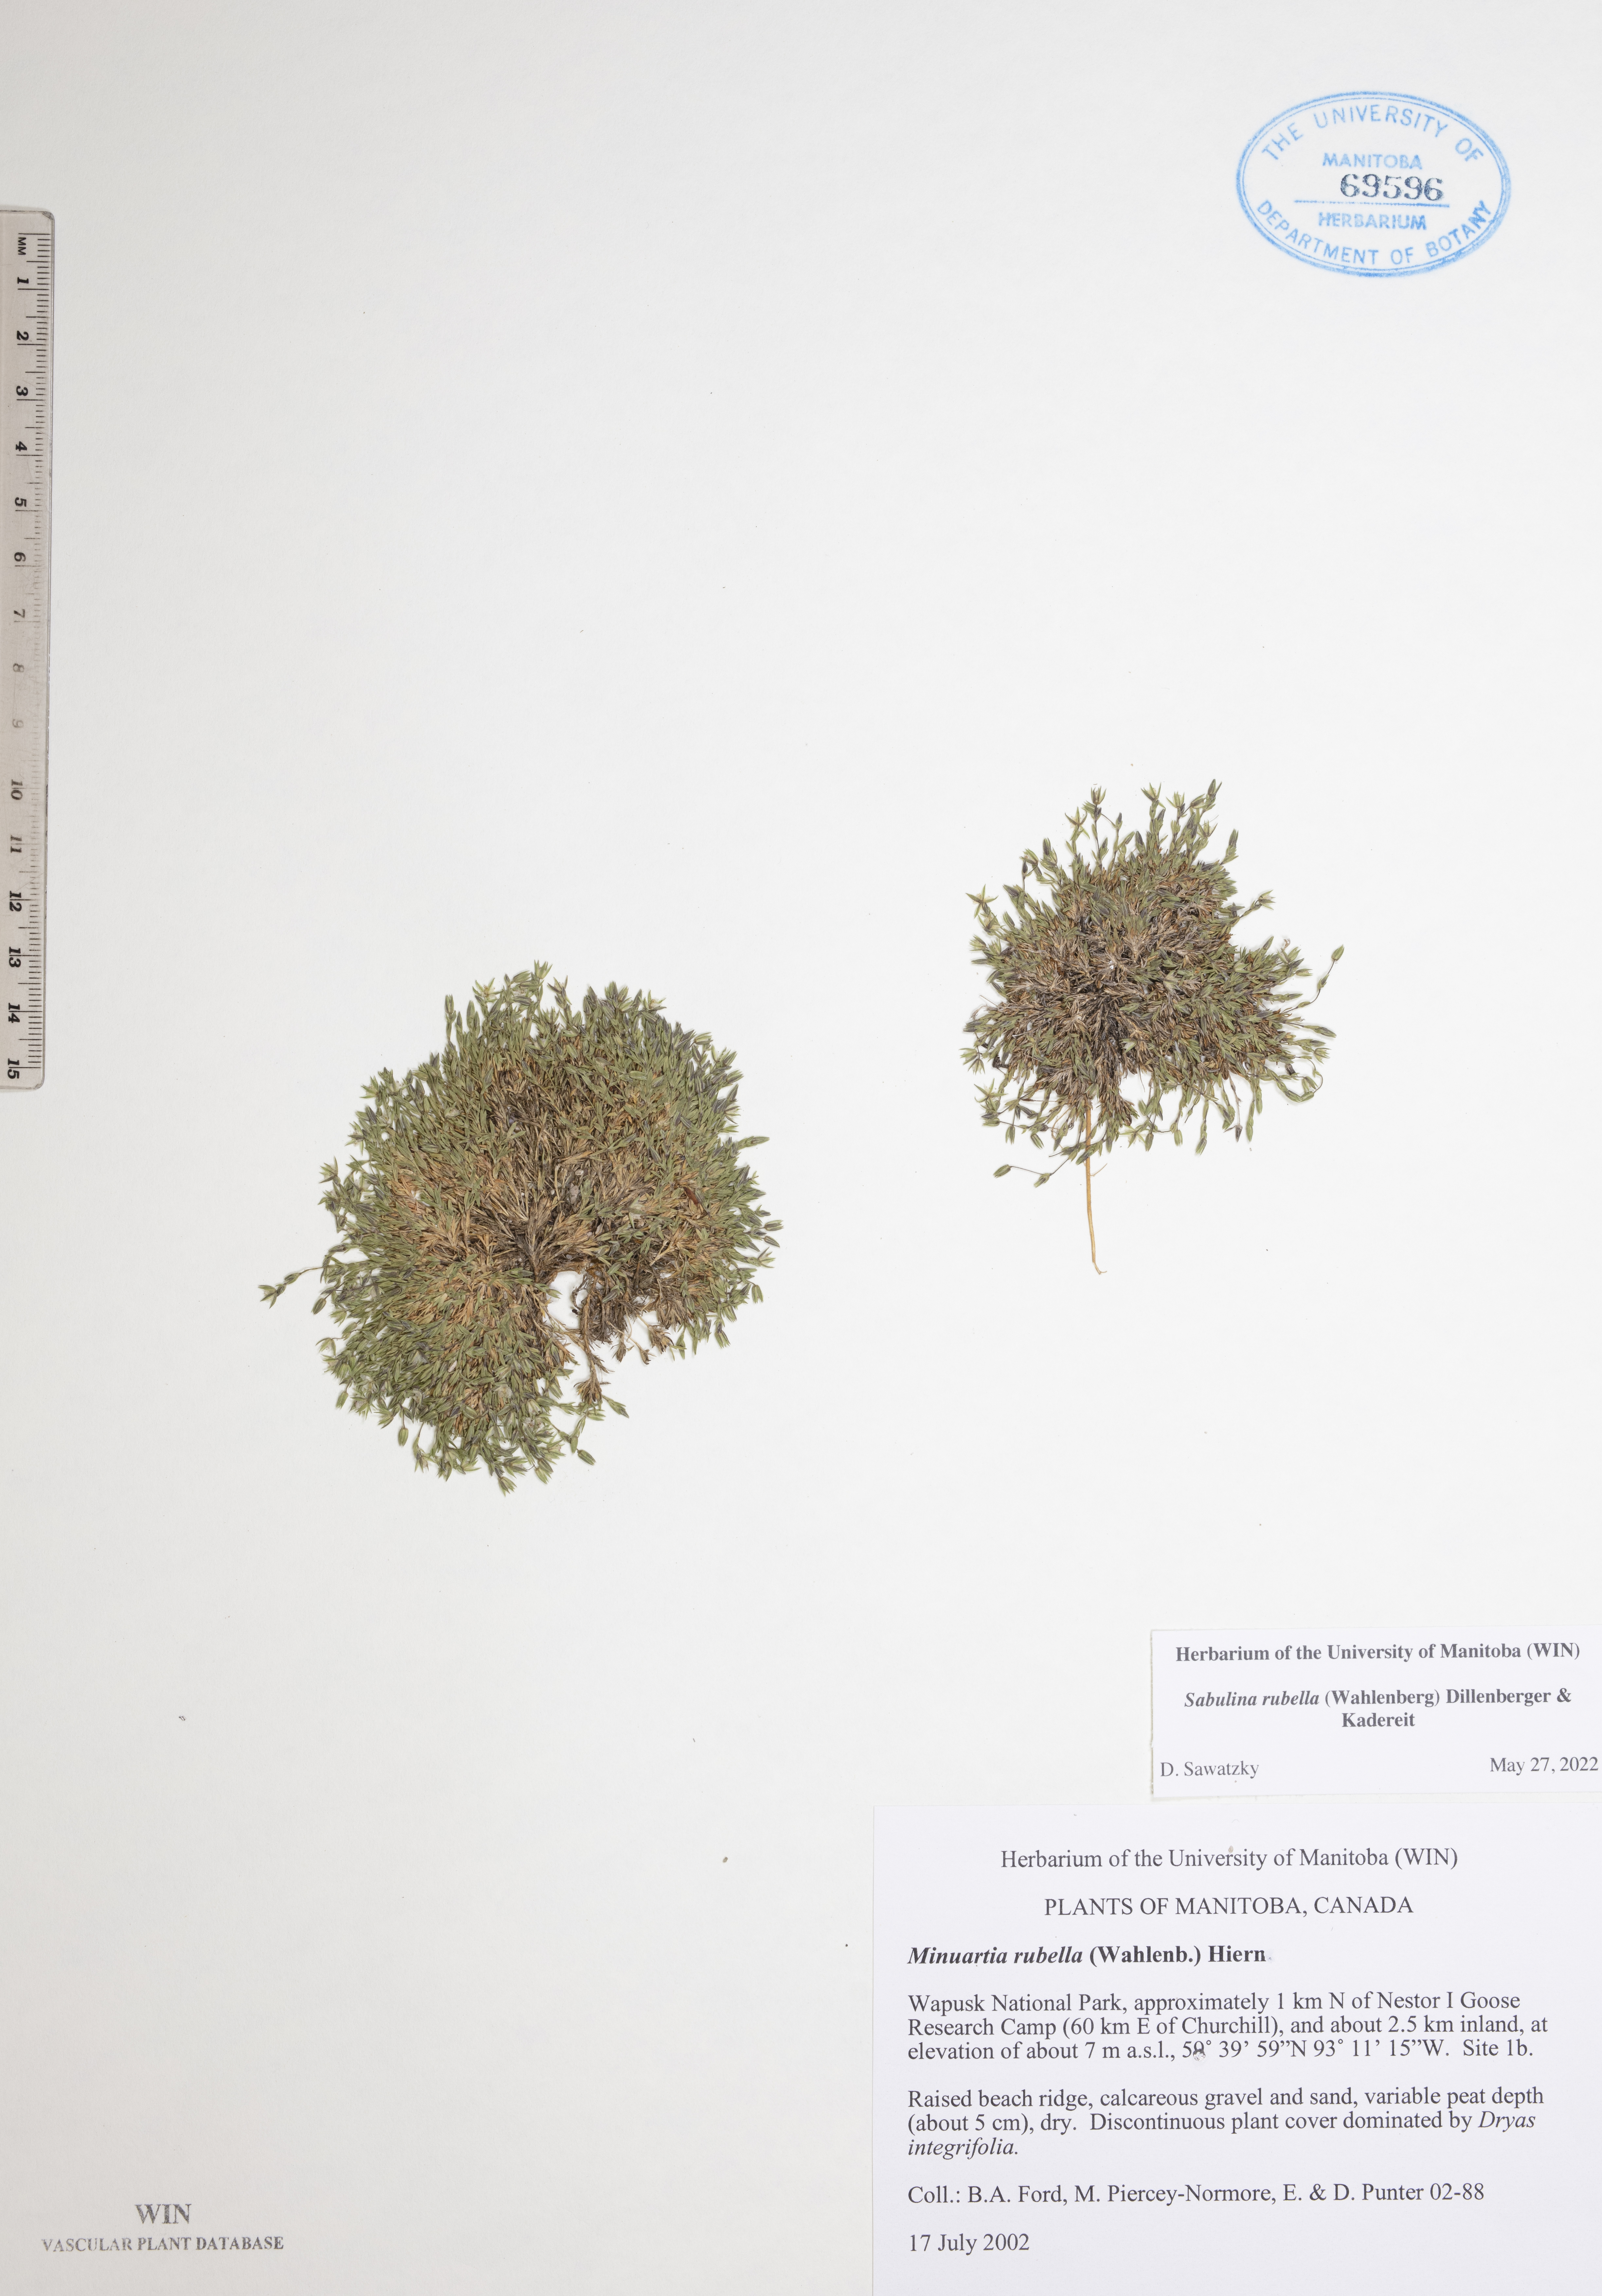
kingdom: Plantae
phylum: Tracheophyta
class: Magnoliopsida
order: Caryophyllales
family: Caryophyllaceae
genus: Sabulina
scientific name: Sabulina rubella
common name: Beautiful sandwort
